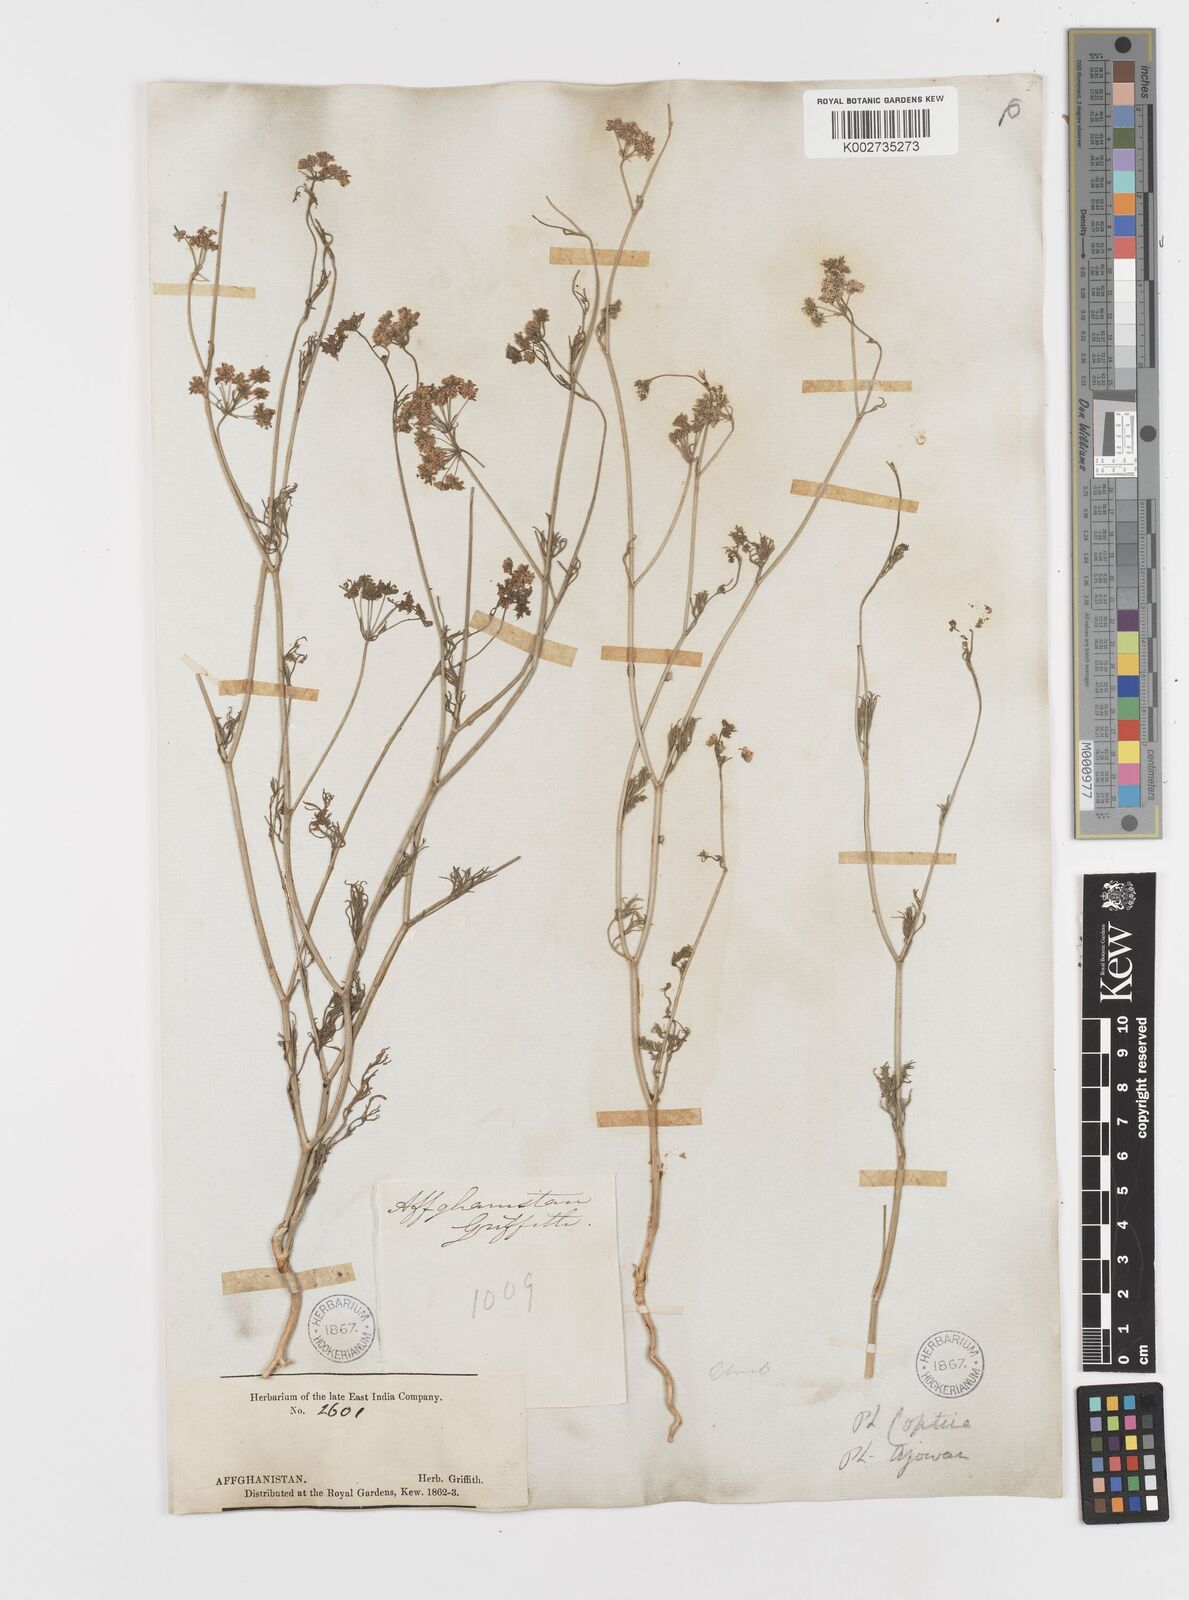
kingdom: Plantae
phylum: Tracheophyta
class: Magnoliopsida
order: Apiales
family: Apiaceae
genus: Trachyspermum
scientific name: Trachyspermum ammi
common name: Ajowan
